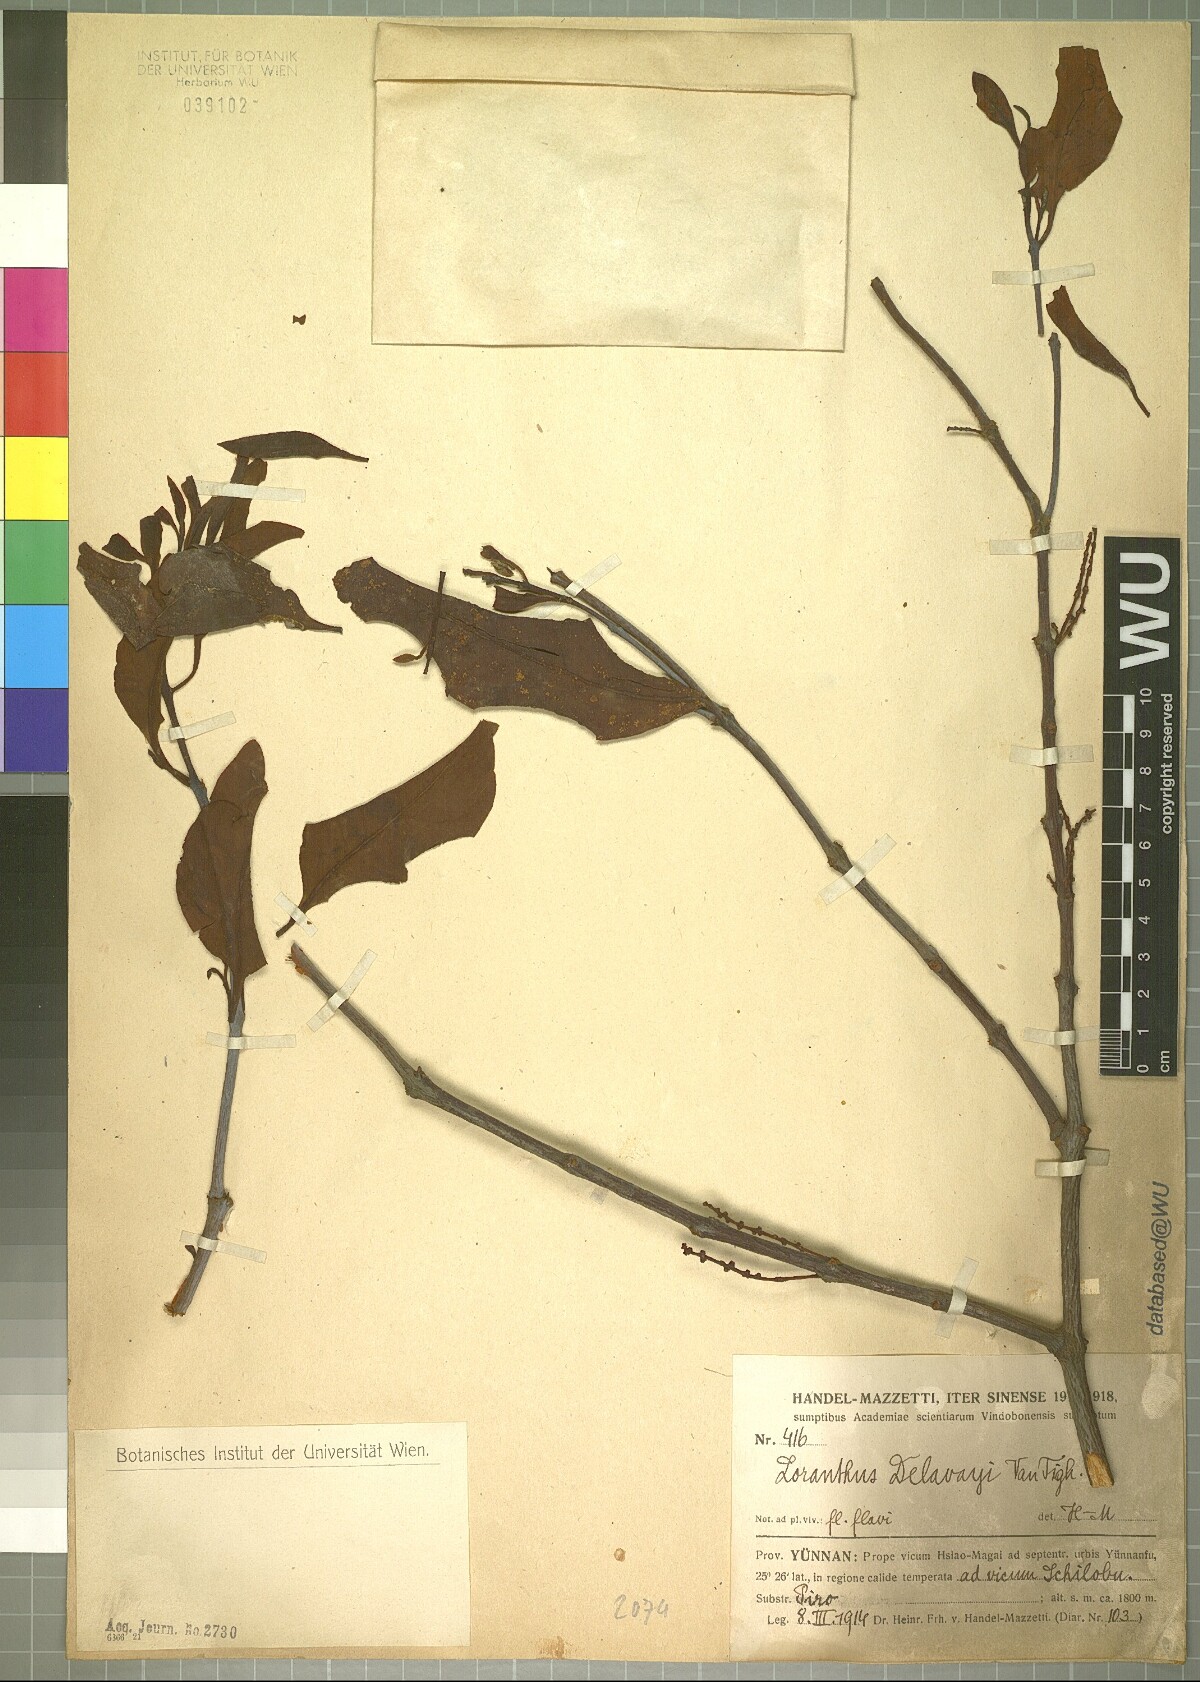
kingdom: Plantae
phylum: Tracheophyta
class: Magnoliopsida
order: Santalales
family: Loranthaceae
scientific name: Loranthaceae
